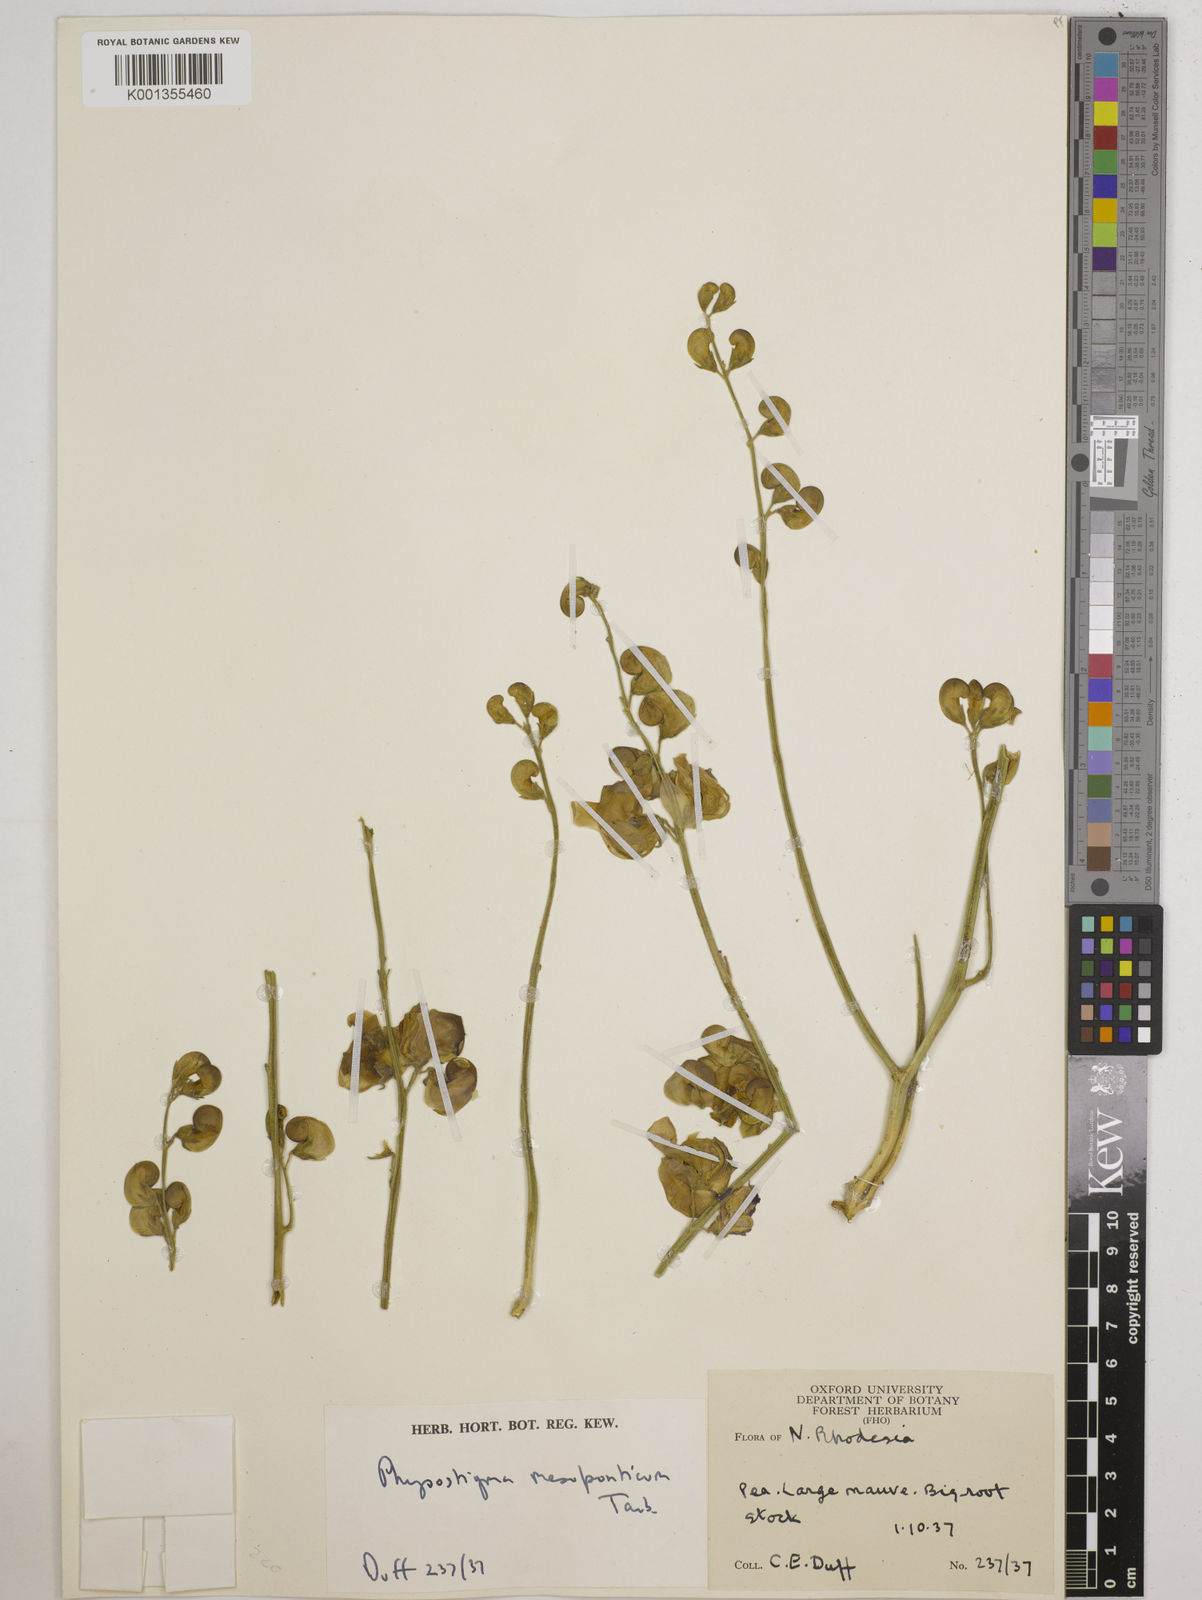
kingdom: Plantae
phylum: Tracheophyta
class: Magnoliopsida
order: Fabales
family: Fabaceae
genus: Physostigma
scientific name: Physostigma mesoponticum
